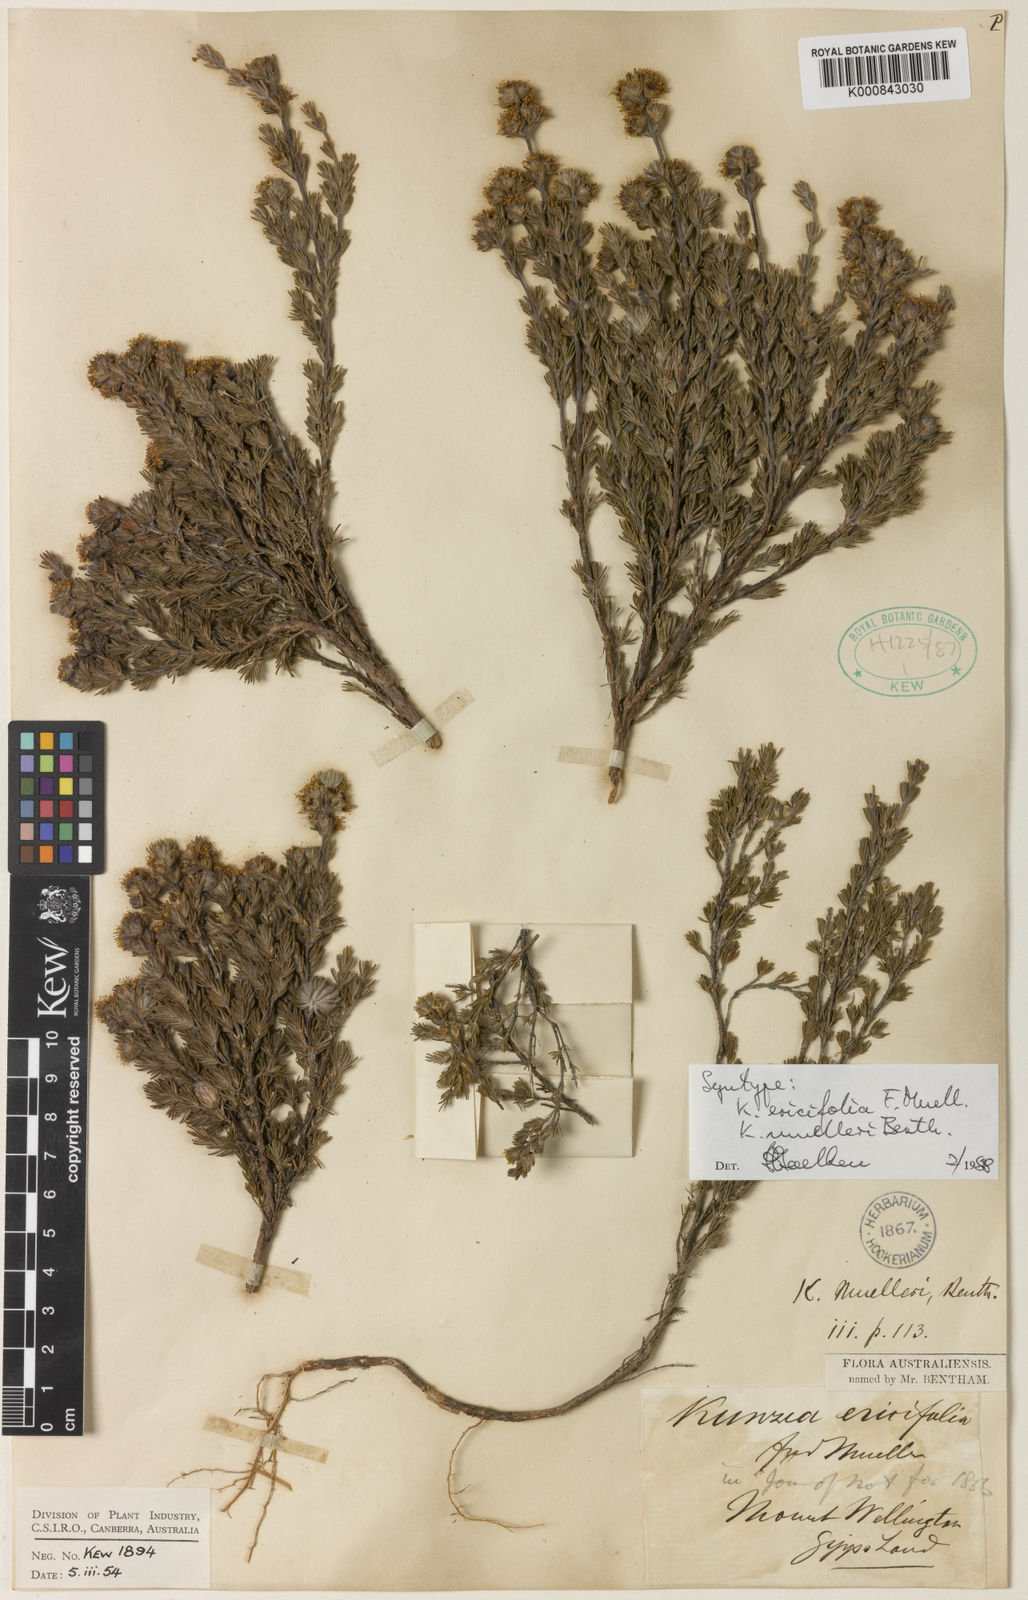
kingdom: Plantae
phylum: Tracheophyta
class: Magnoliopsida
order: Myrtales
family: Myrtaceae
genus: Kunzea
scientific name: Kunzea muelleri
